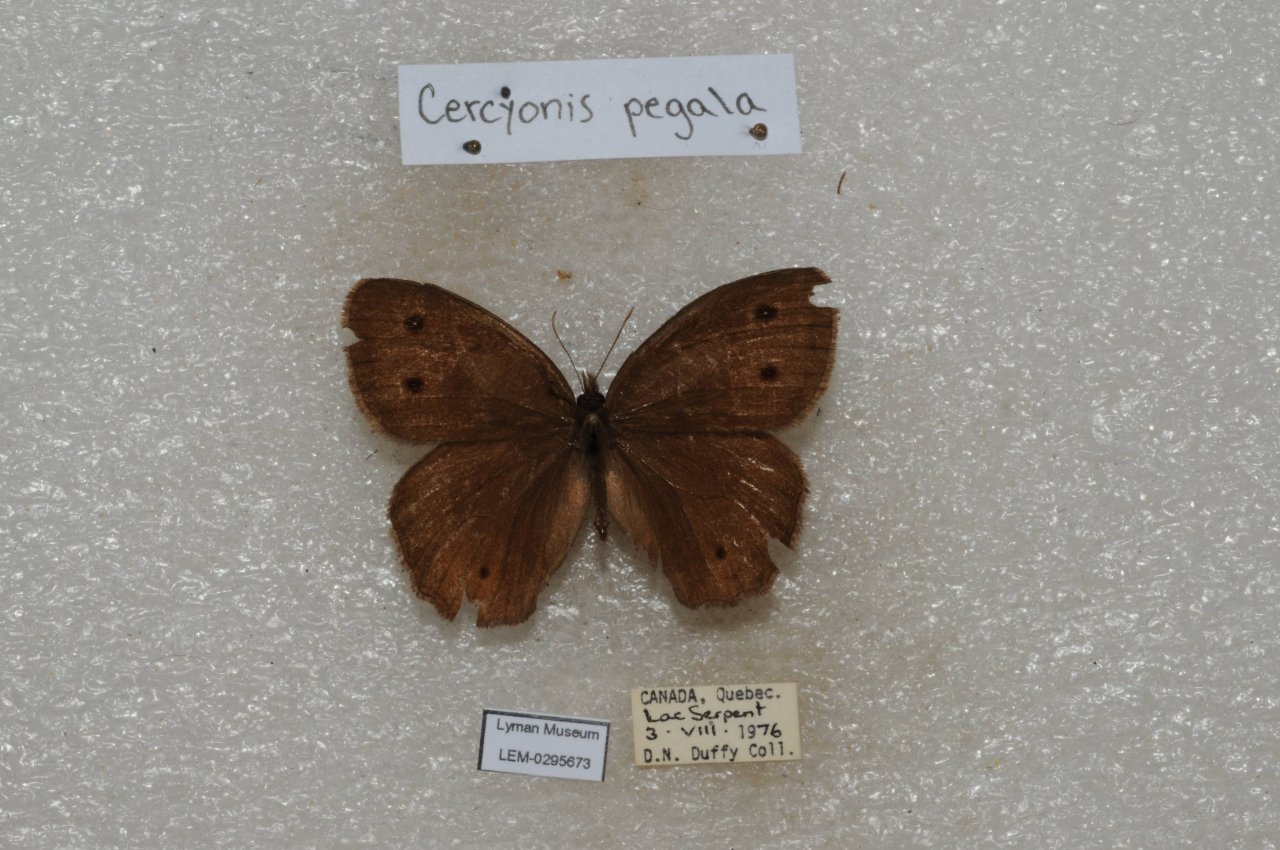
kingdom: Animalia
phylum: Arthropoda
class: Insecta
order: Lepidoptera
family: Nymphalidae
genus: Cercyonis
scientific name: Cercyonis pegala
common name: Common Wood-Nymph
